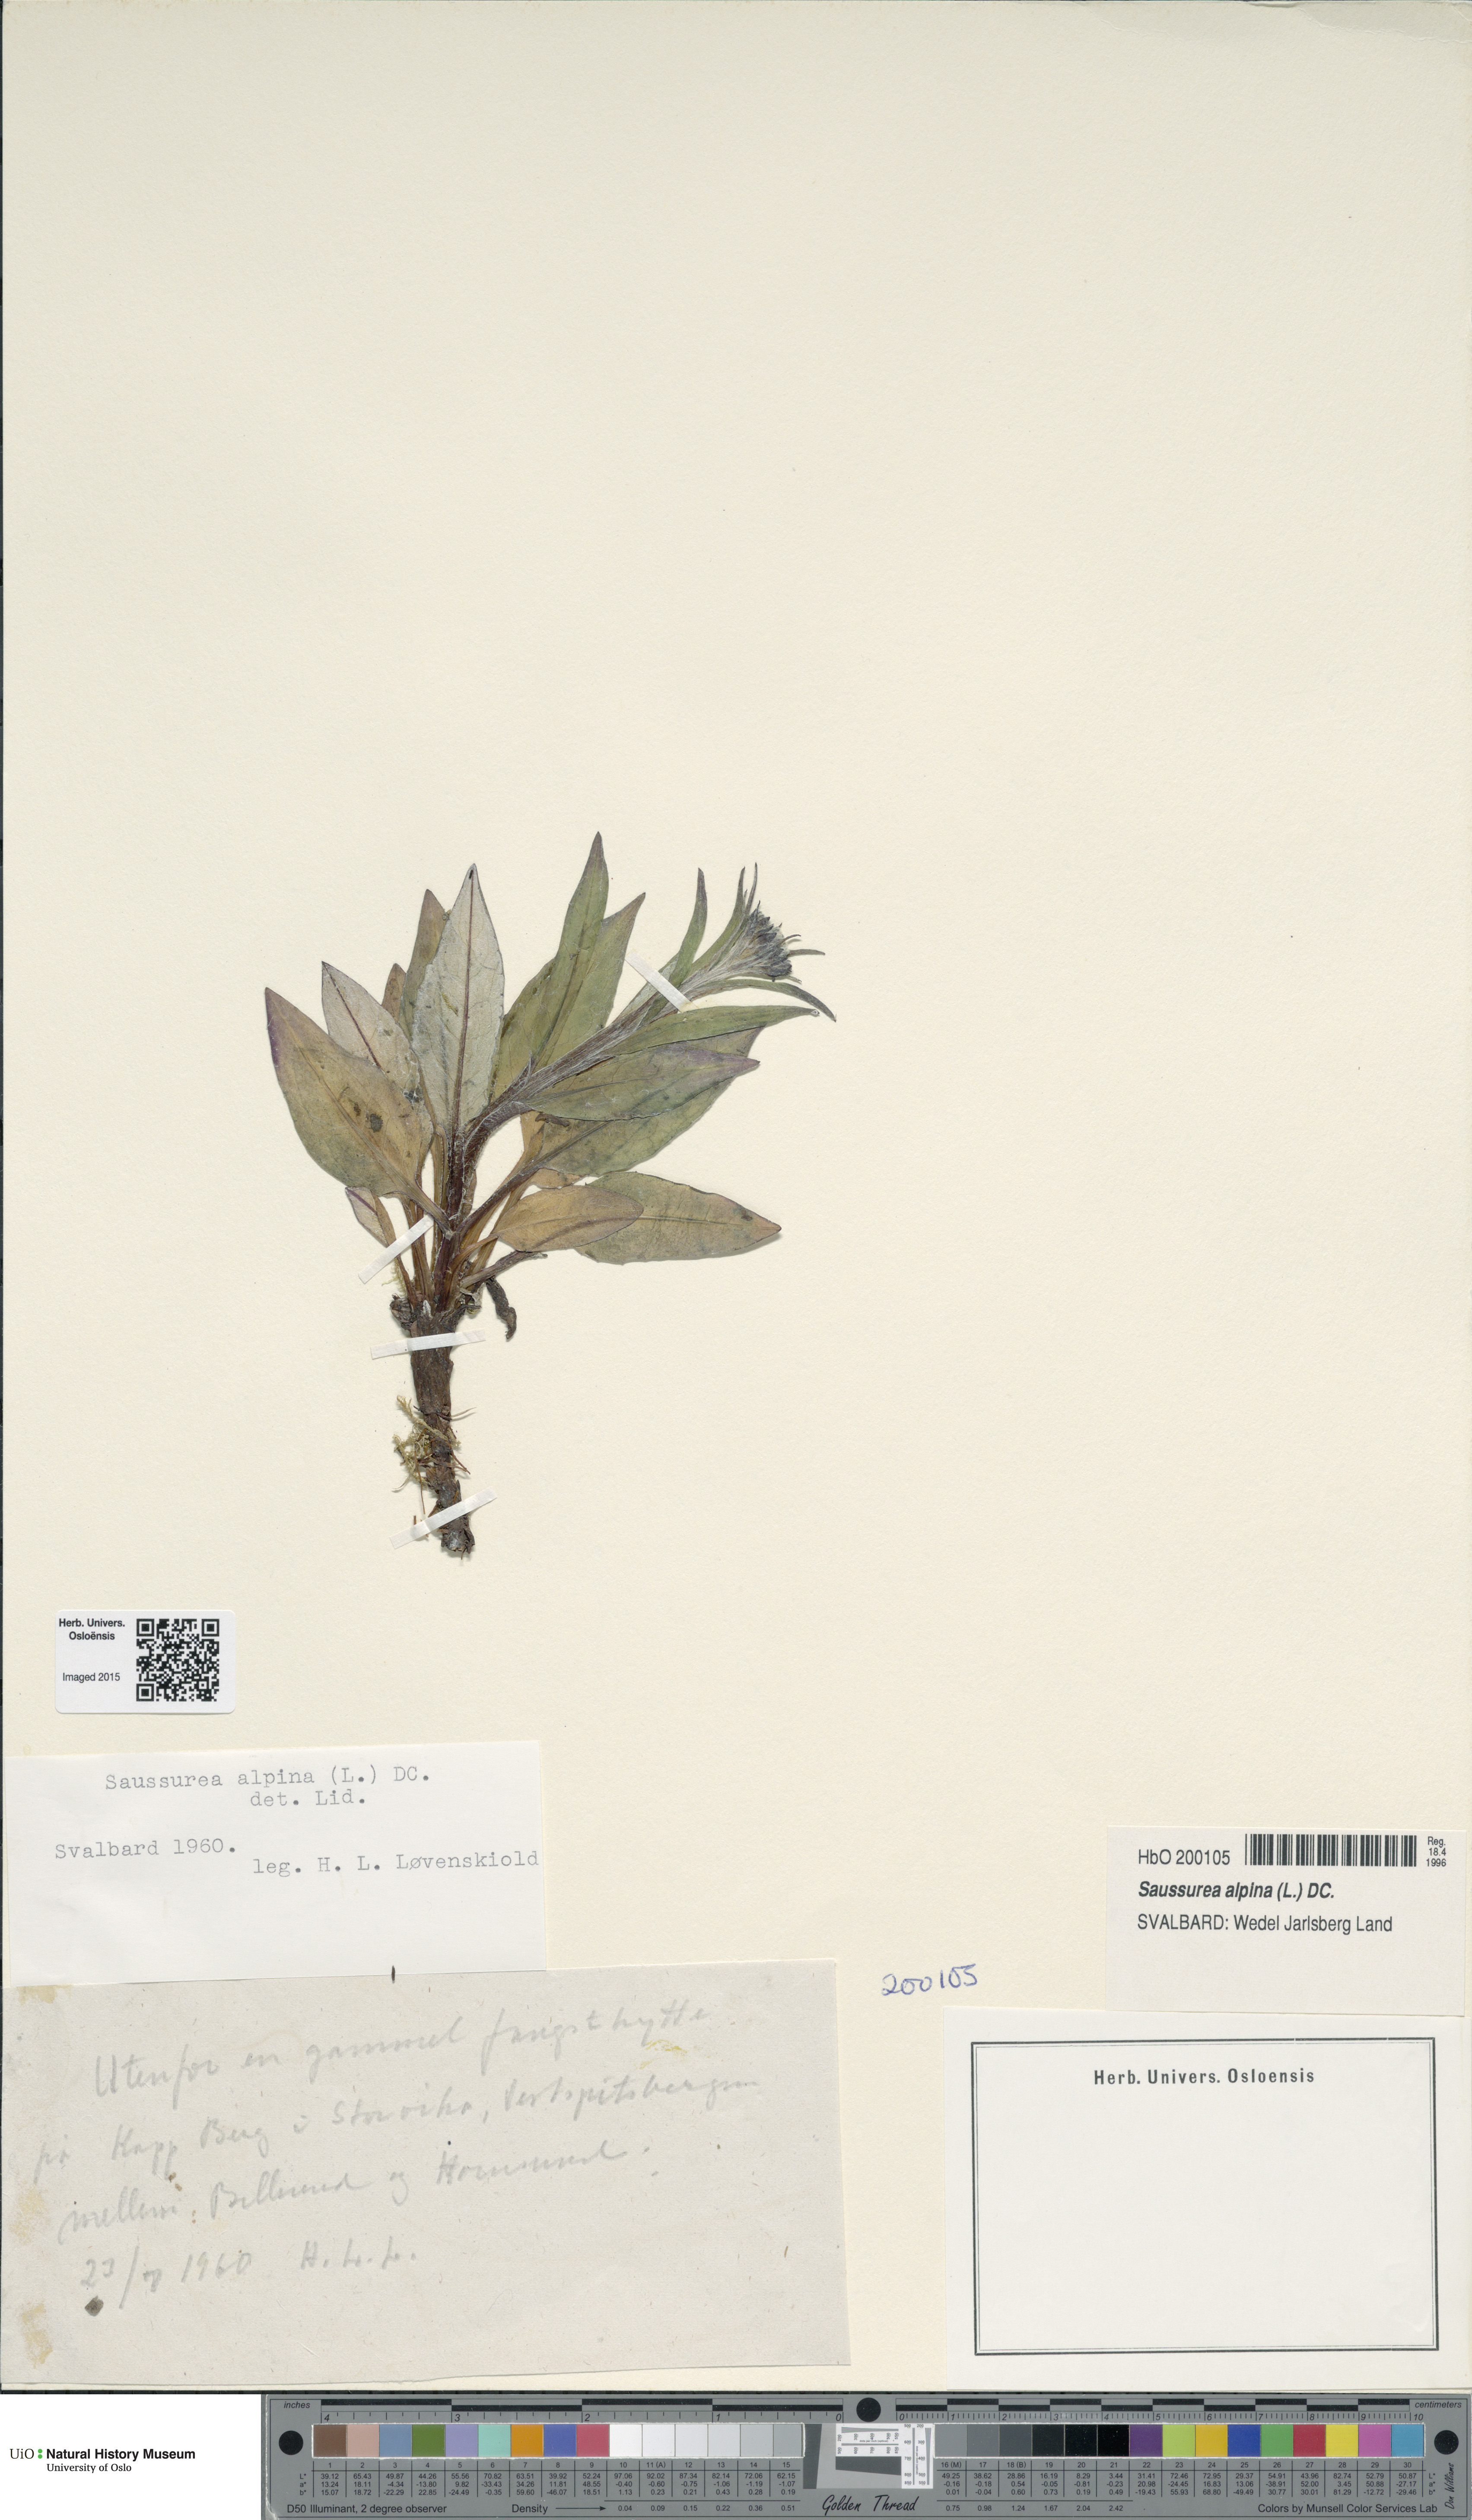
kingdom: Plantae
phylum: Tracheophyta
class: Magnoliopsida
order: Asterales
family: Asteraceae
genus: Saussurea
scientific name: Saussurea alpina
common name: Alpine saw-wort
